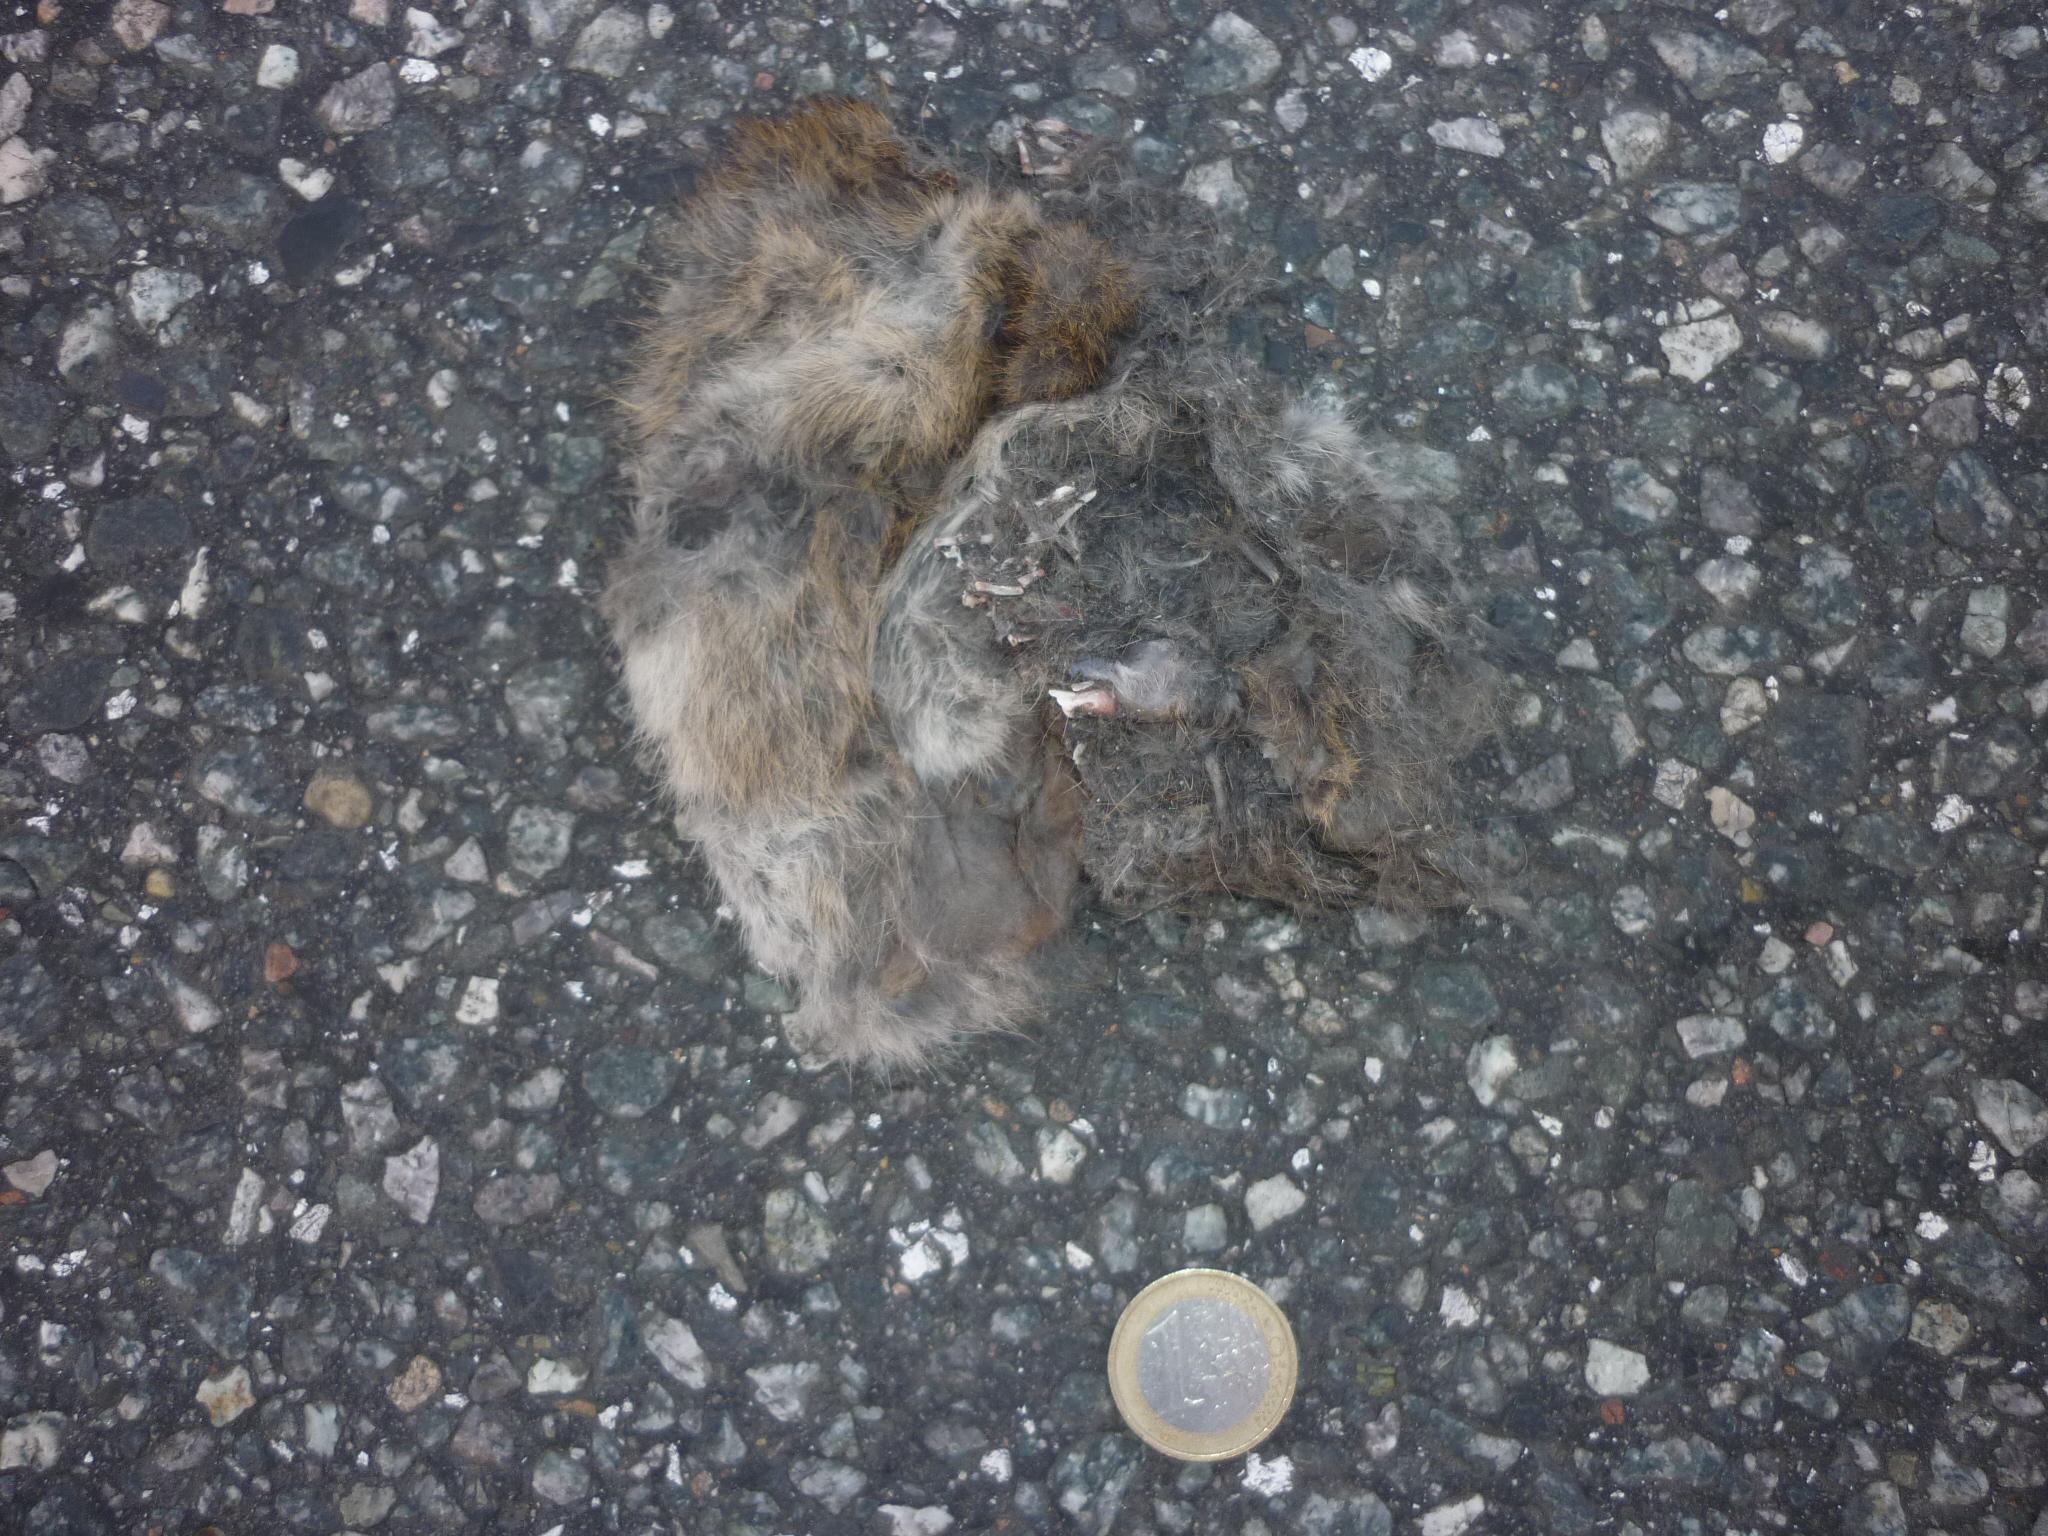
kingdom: Animalia
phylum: Chordata
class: Mammalia
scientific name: Mammalia
